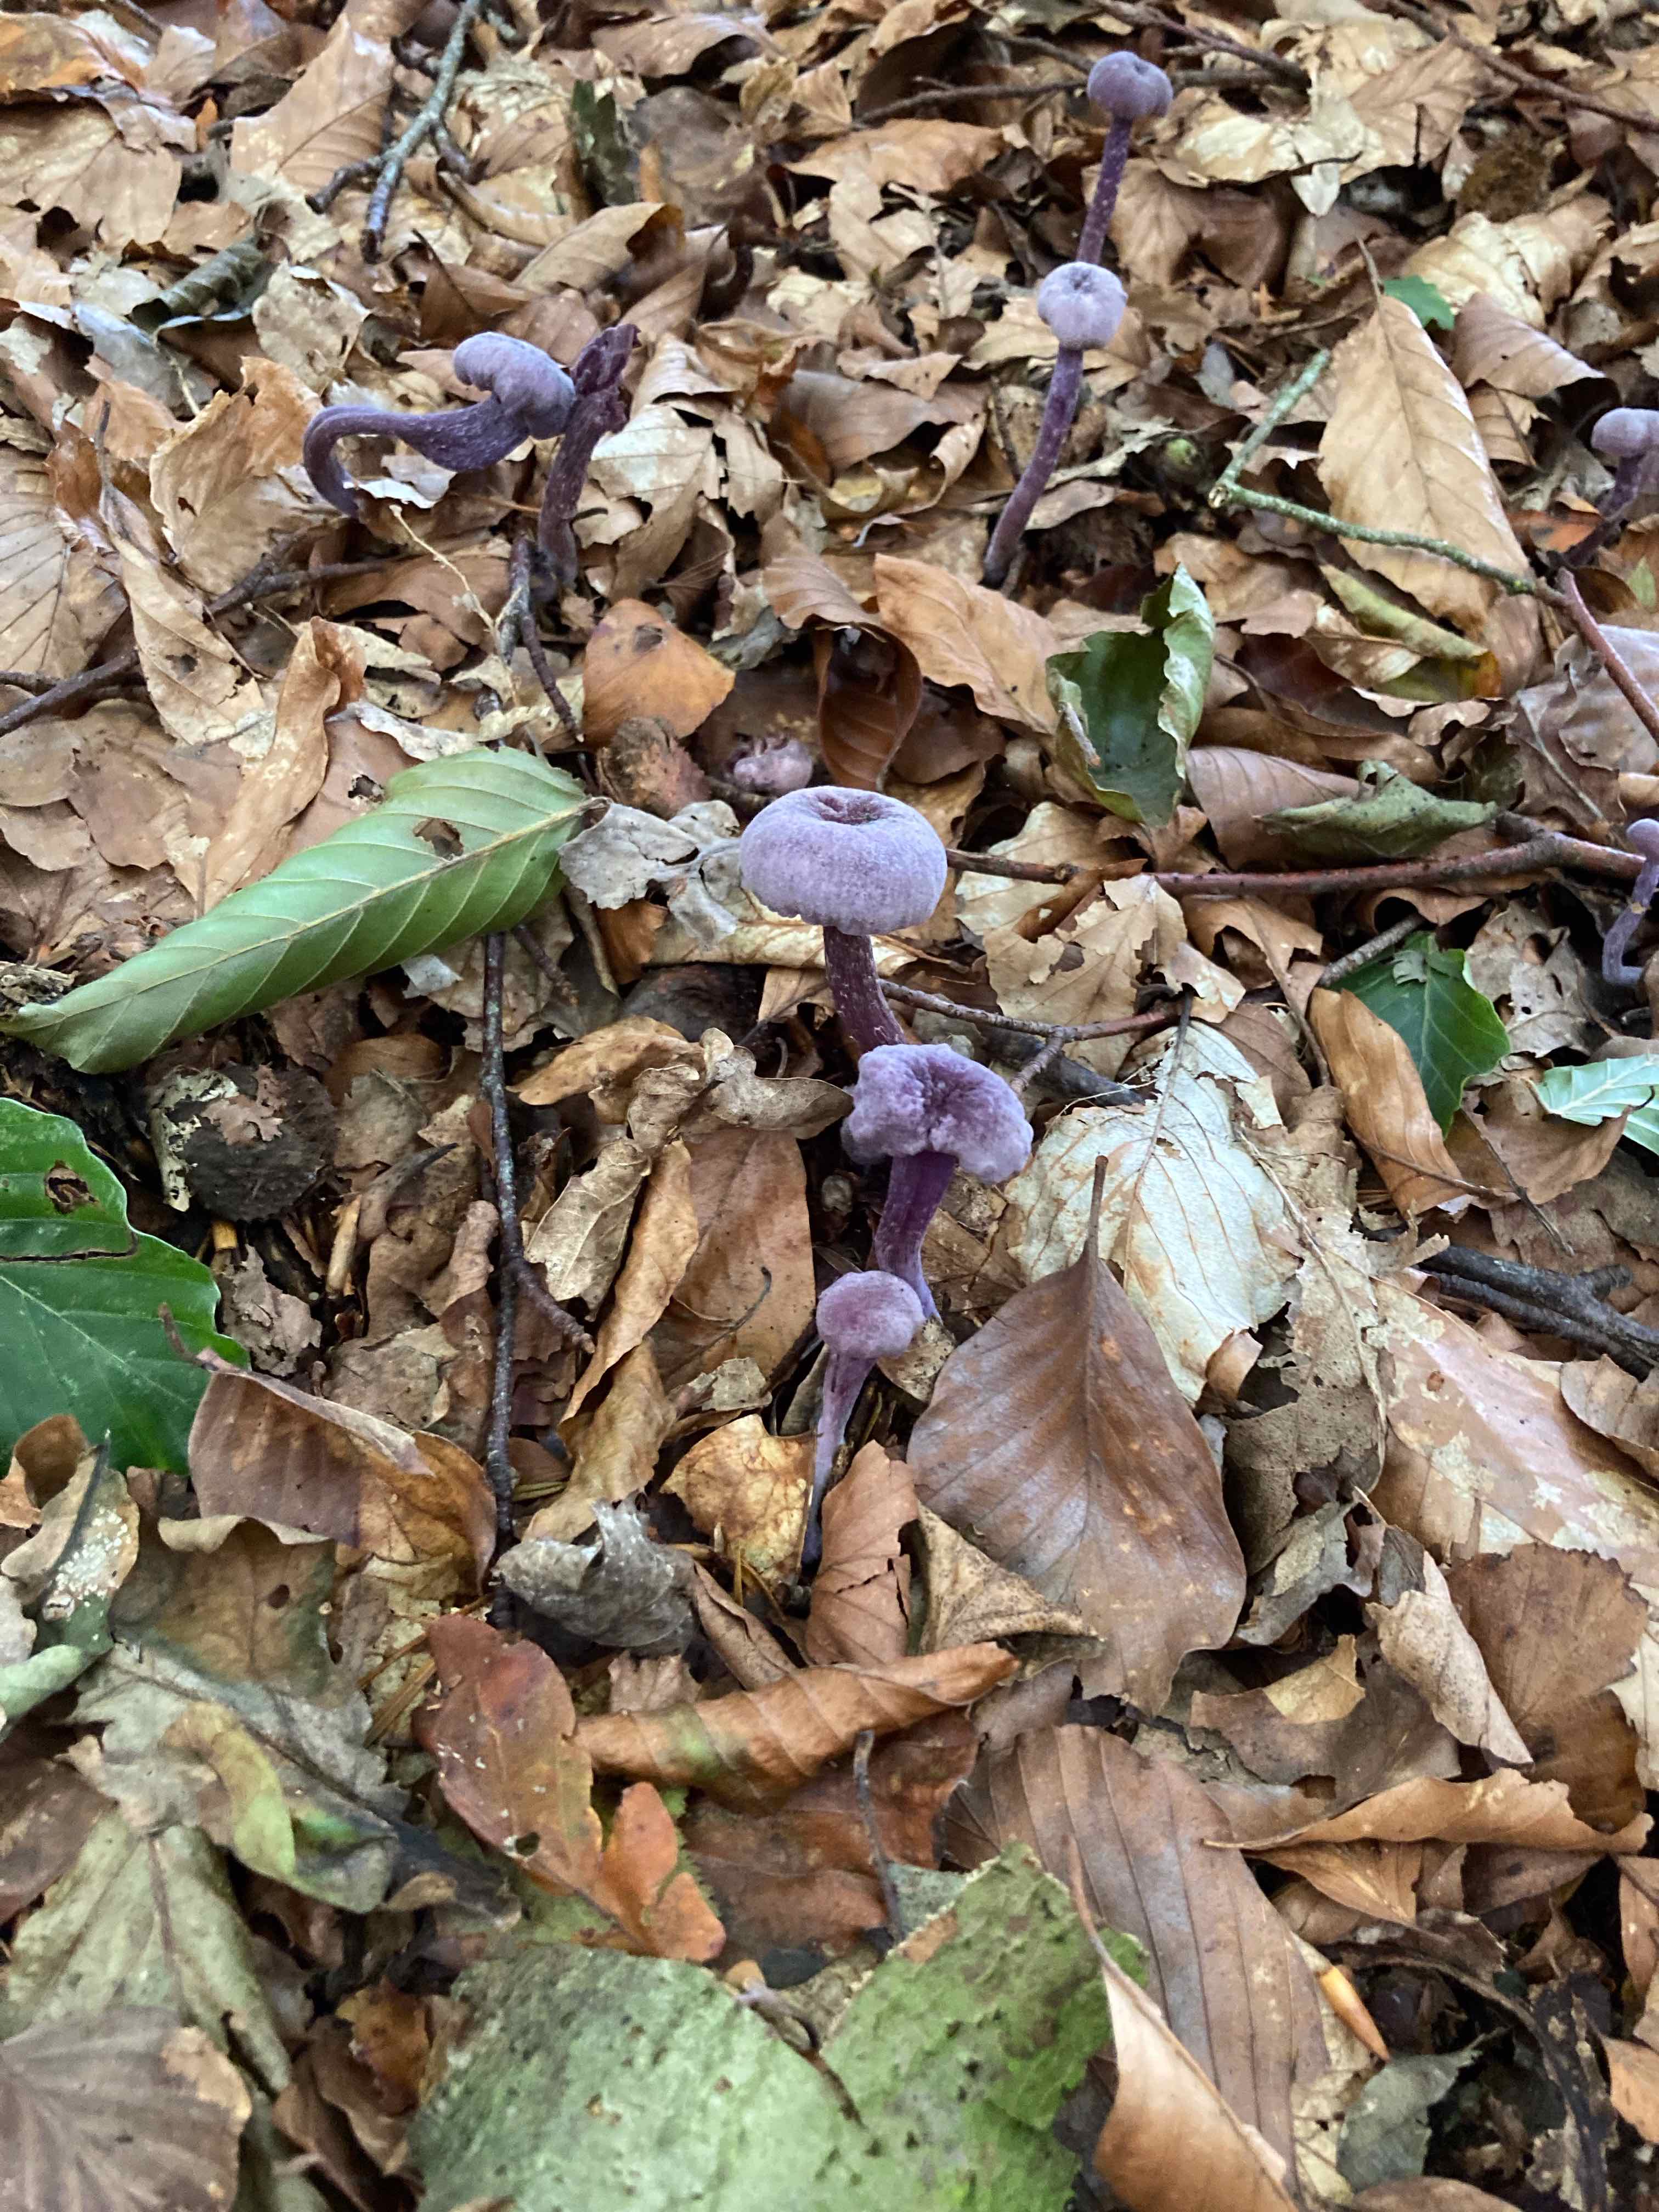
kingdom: Fungi
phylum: Basidiomycota
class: Agaricomycetes
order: Agaricales
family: Hydnangiaceae
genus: Laccaria
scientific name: Laccaria amethystina
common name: violet ametysthat
